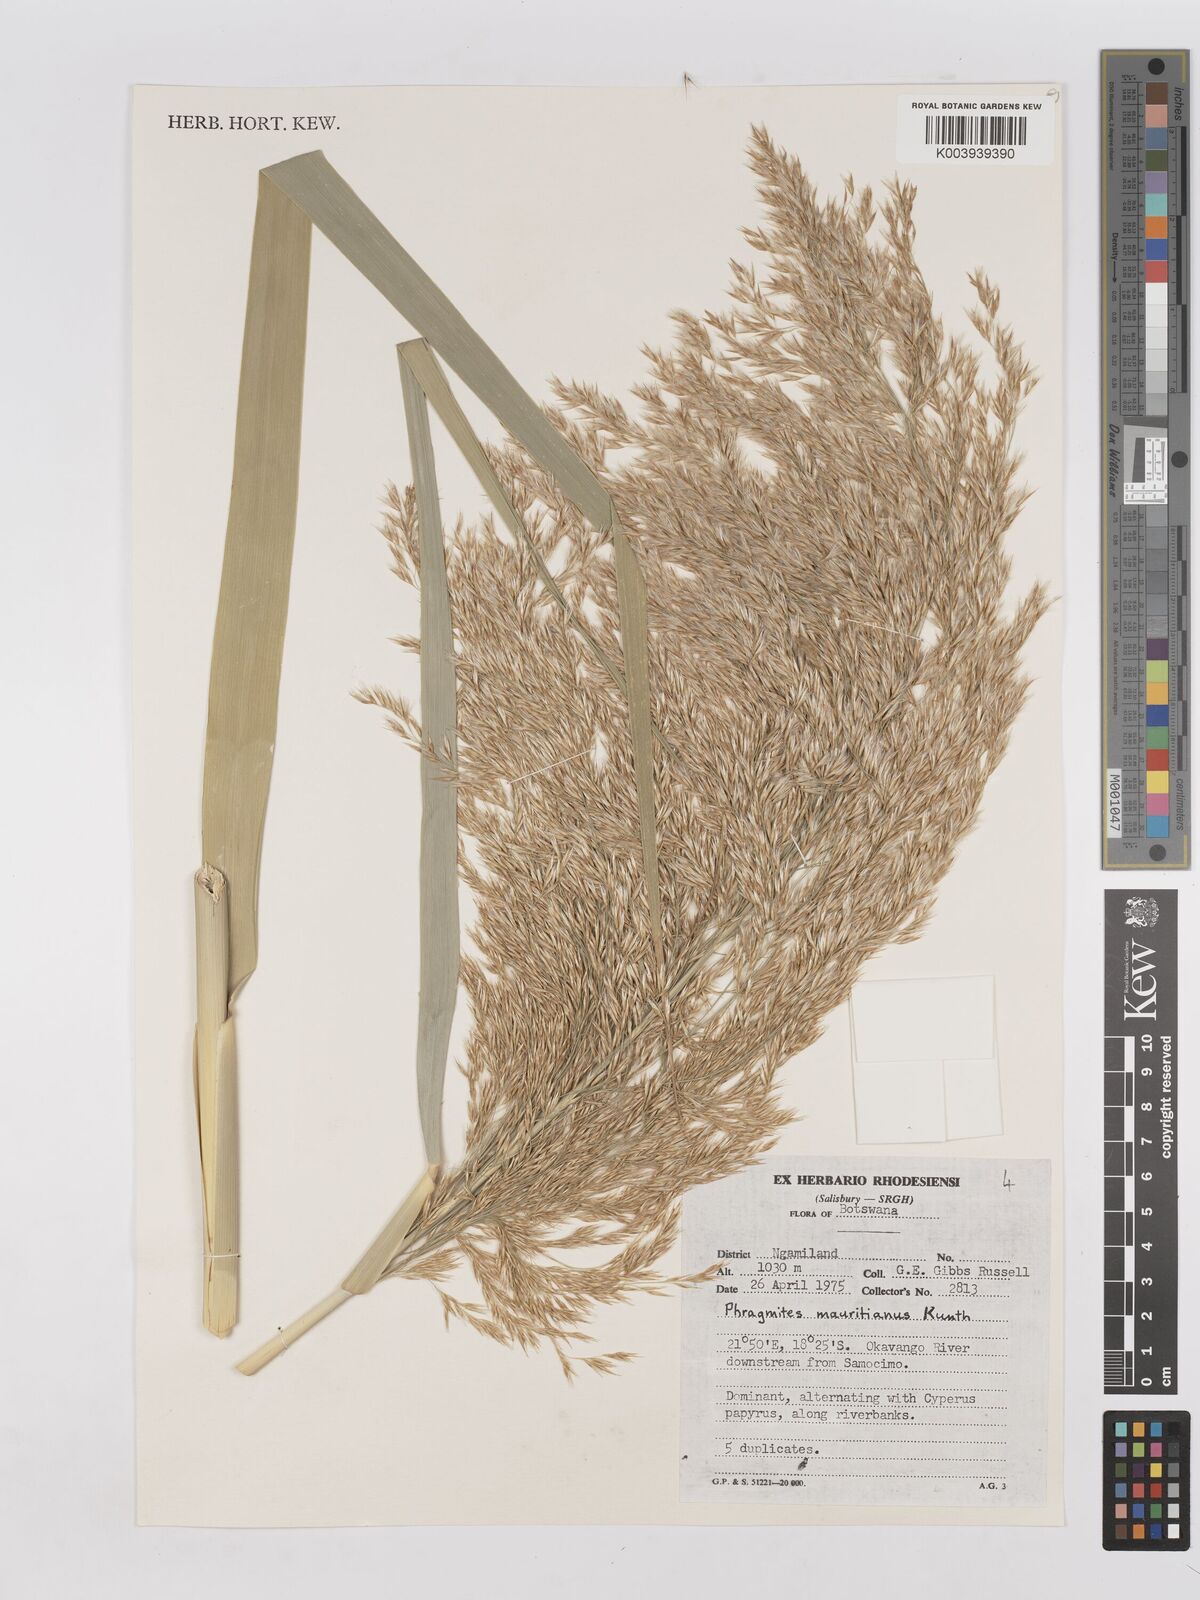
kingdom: Plantae
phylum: Tracheophyta
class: Liliopsida
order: Poales
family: Poaceae
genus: Phragmites
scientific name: Phragmites australis
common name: Common reed
